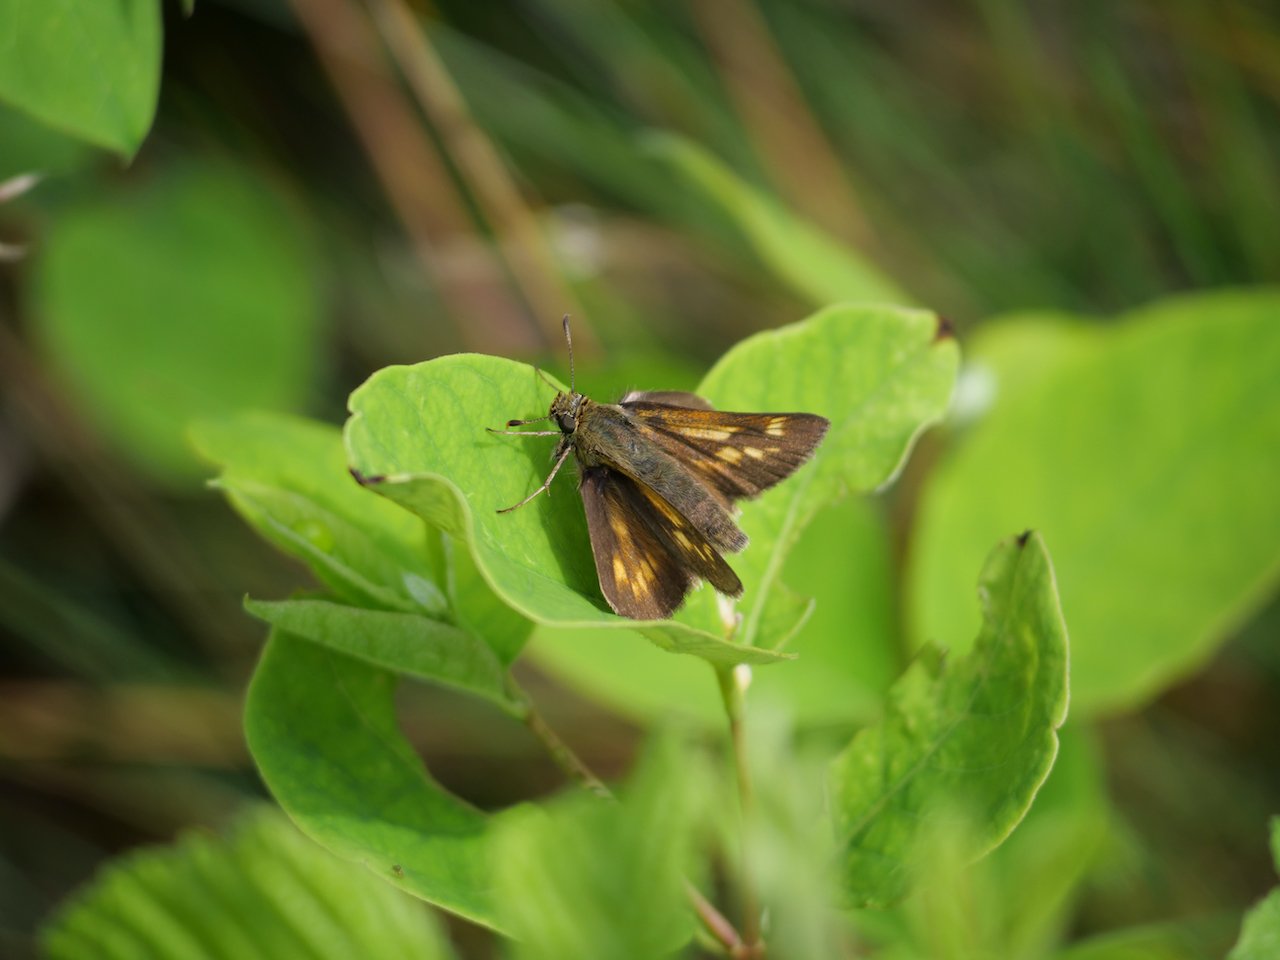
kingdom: Animalia
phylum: Arthropoda
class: Insecta
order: Lepidoptera
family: Hesperiidae
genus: Polites
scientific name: Polites
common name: Long Dash Skipper
